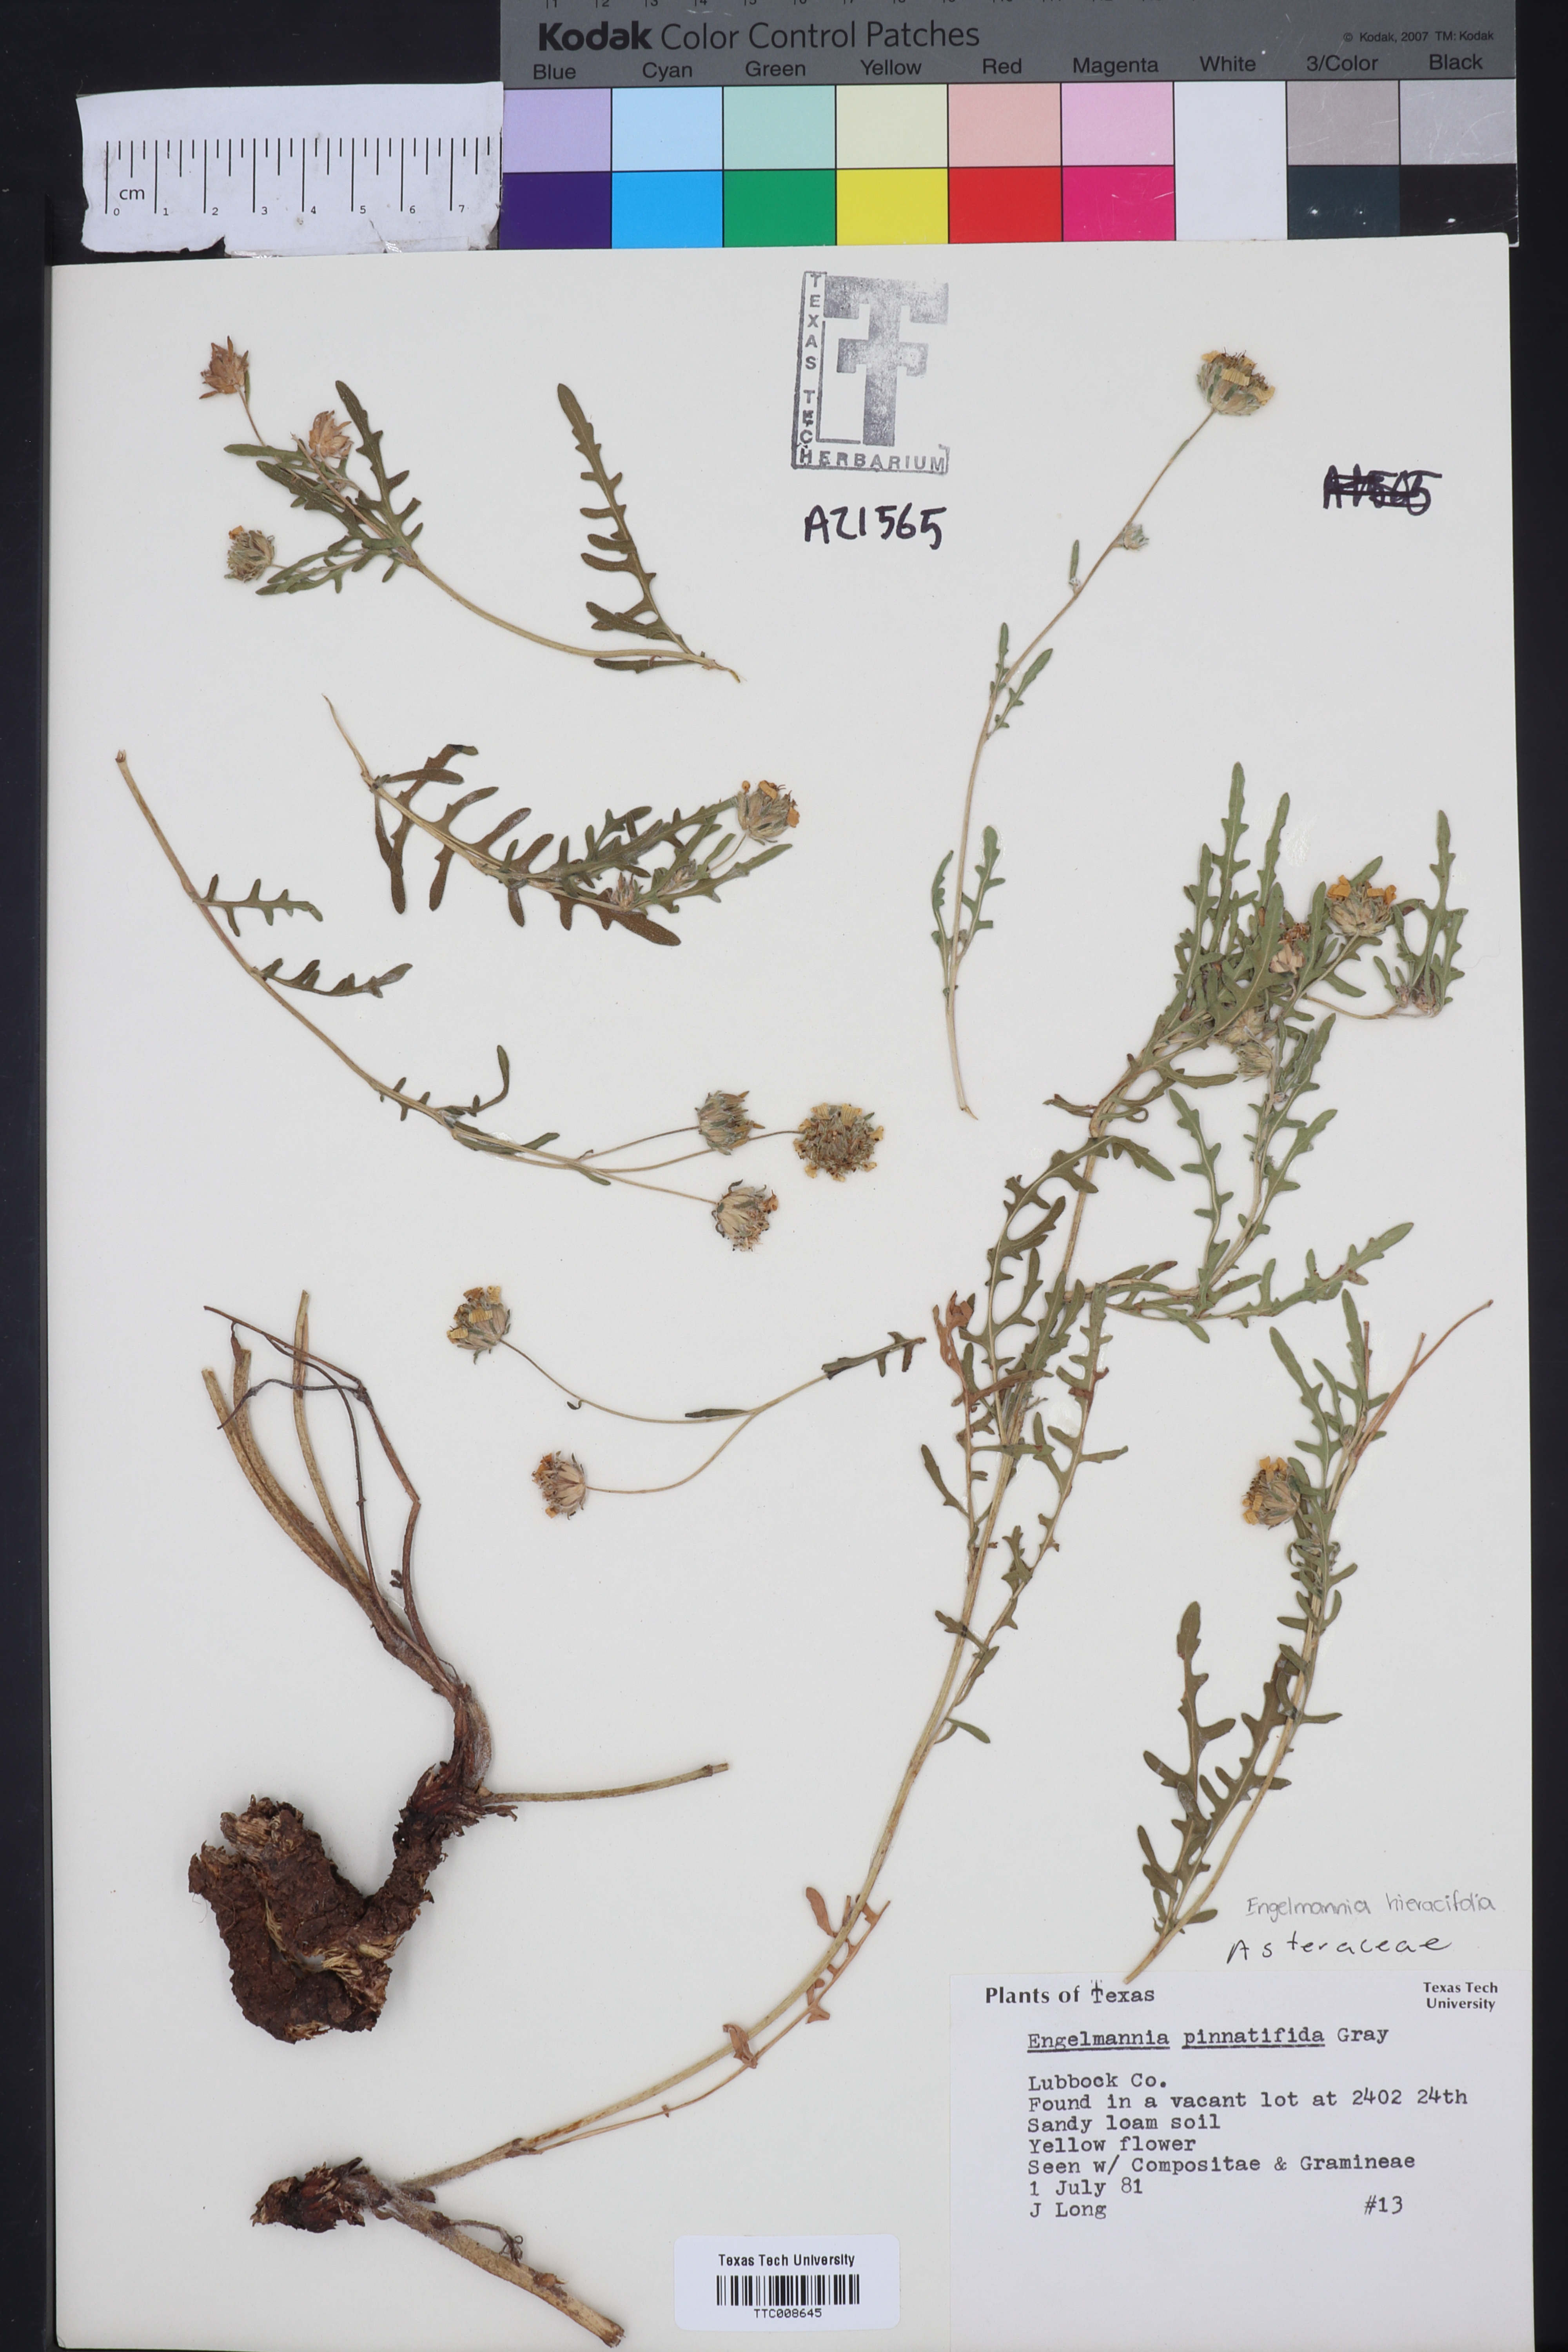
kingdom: Plantae
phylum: Tracheophyta
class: Magnoliopsida
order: Asterales
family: Asteraceae
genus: Engelmannia
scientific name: Engelmannia peristenia
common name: Engelmann's daisy
